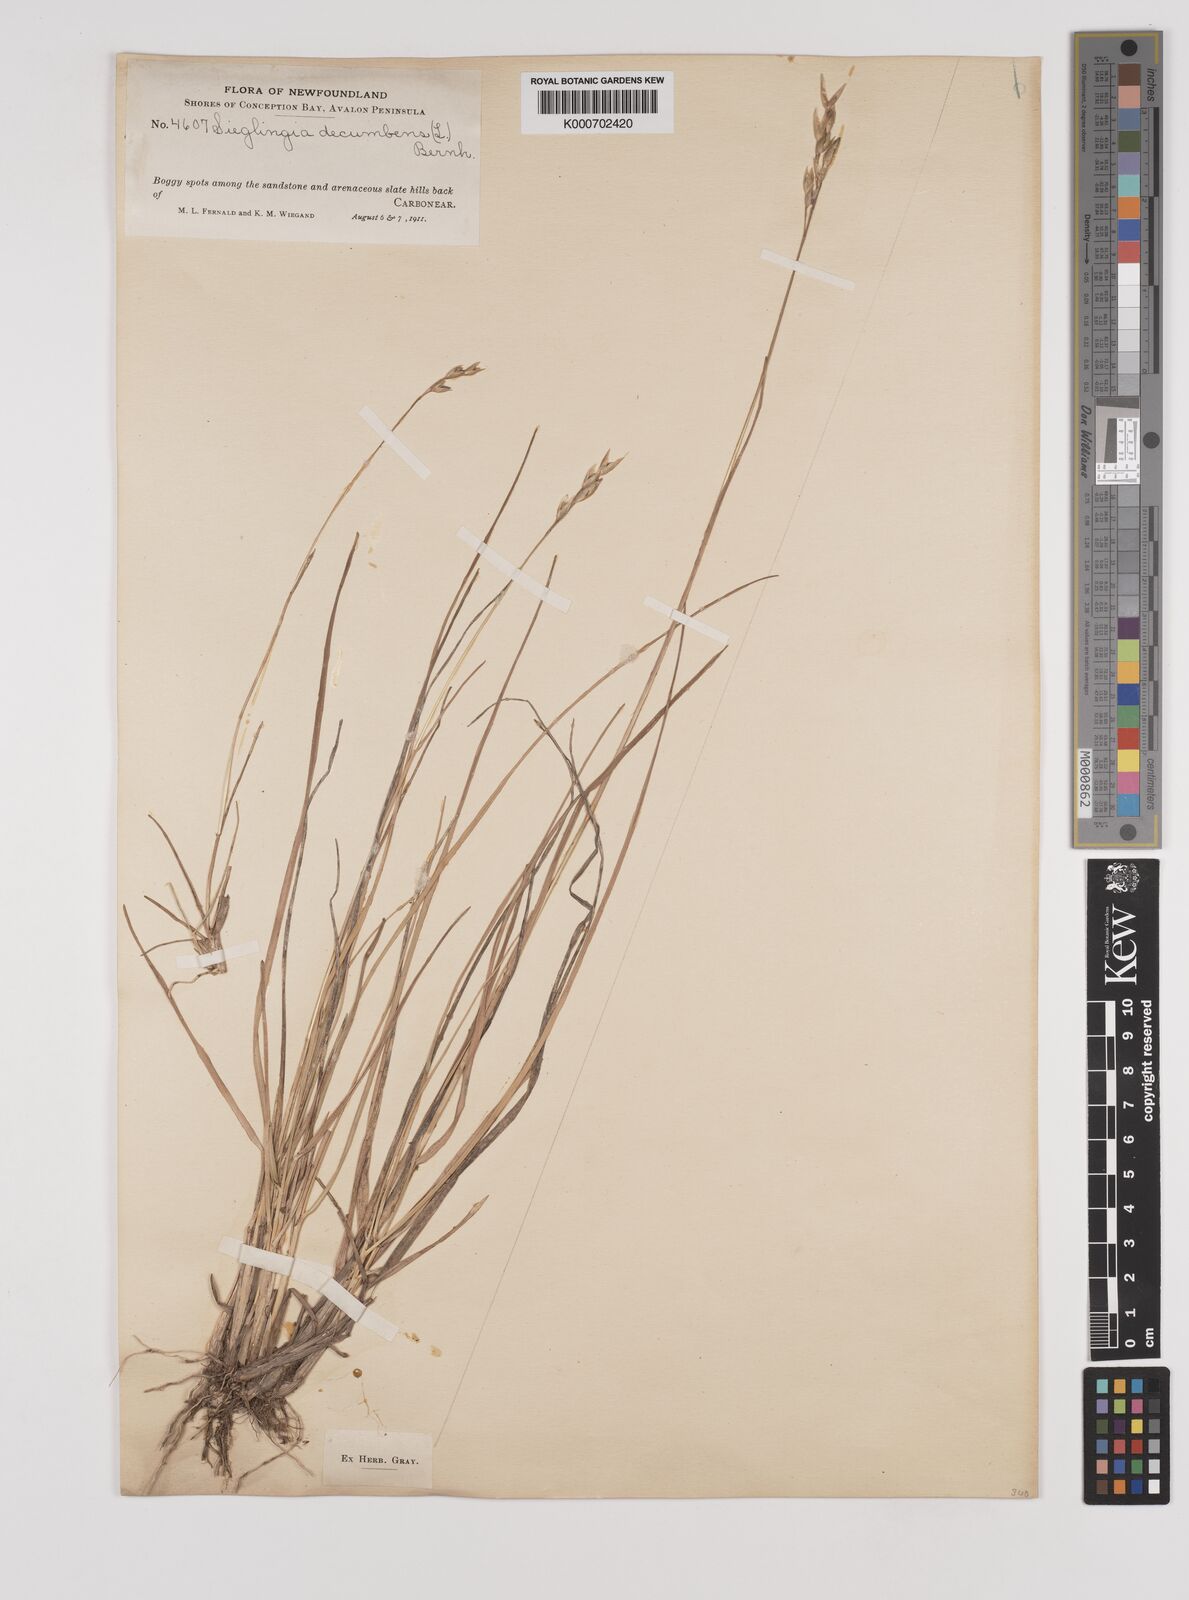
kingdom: Plantae
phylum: Tracheophyta
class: Liliopsida
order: Poales
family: Poaceae
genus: Danthonia
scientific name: Danthonia decumbens
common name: Common heathgrass
